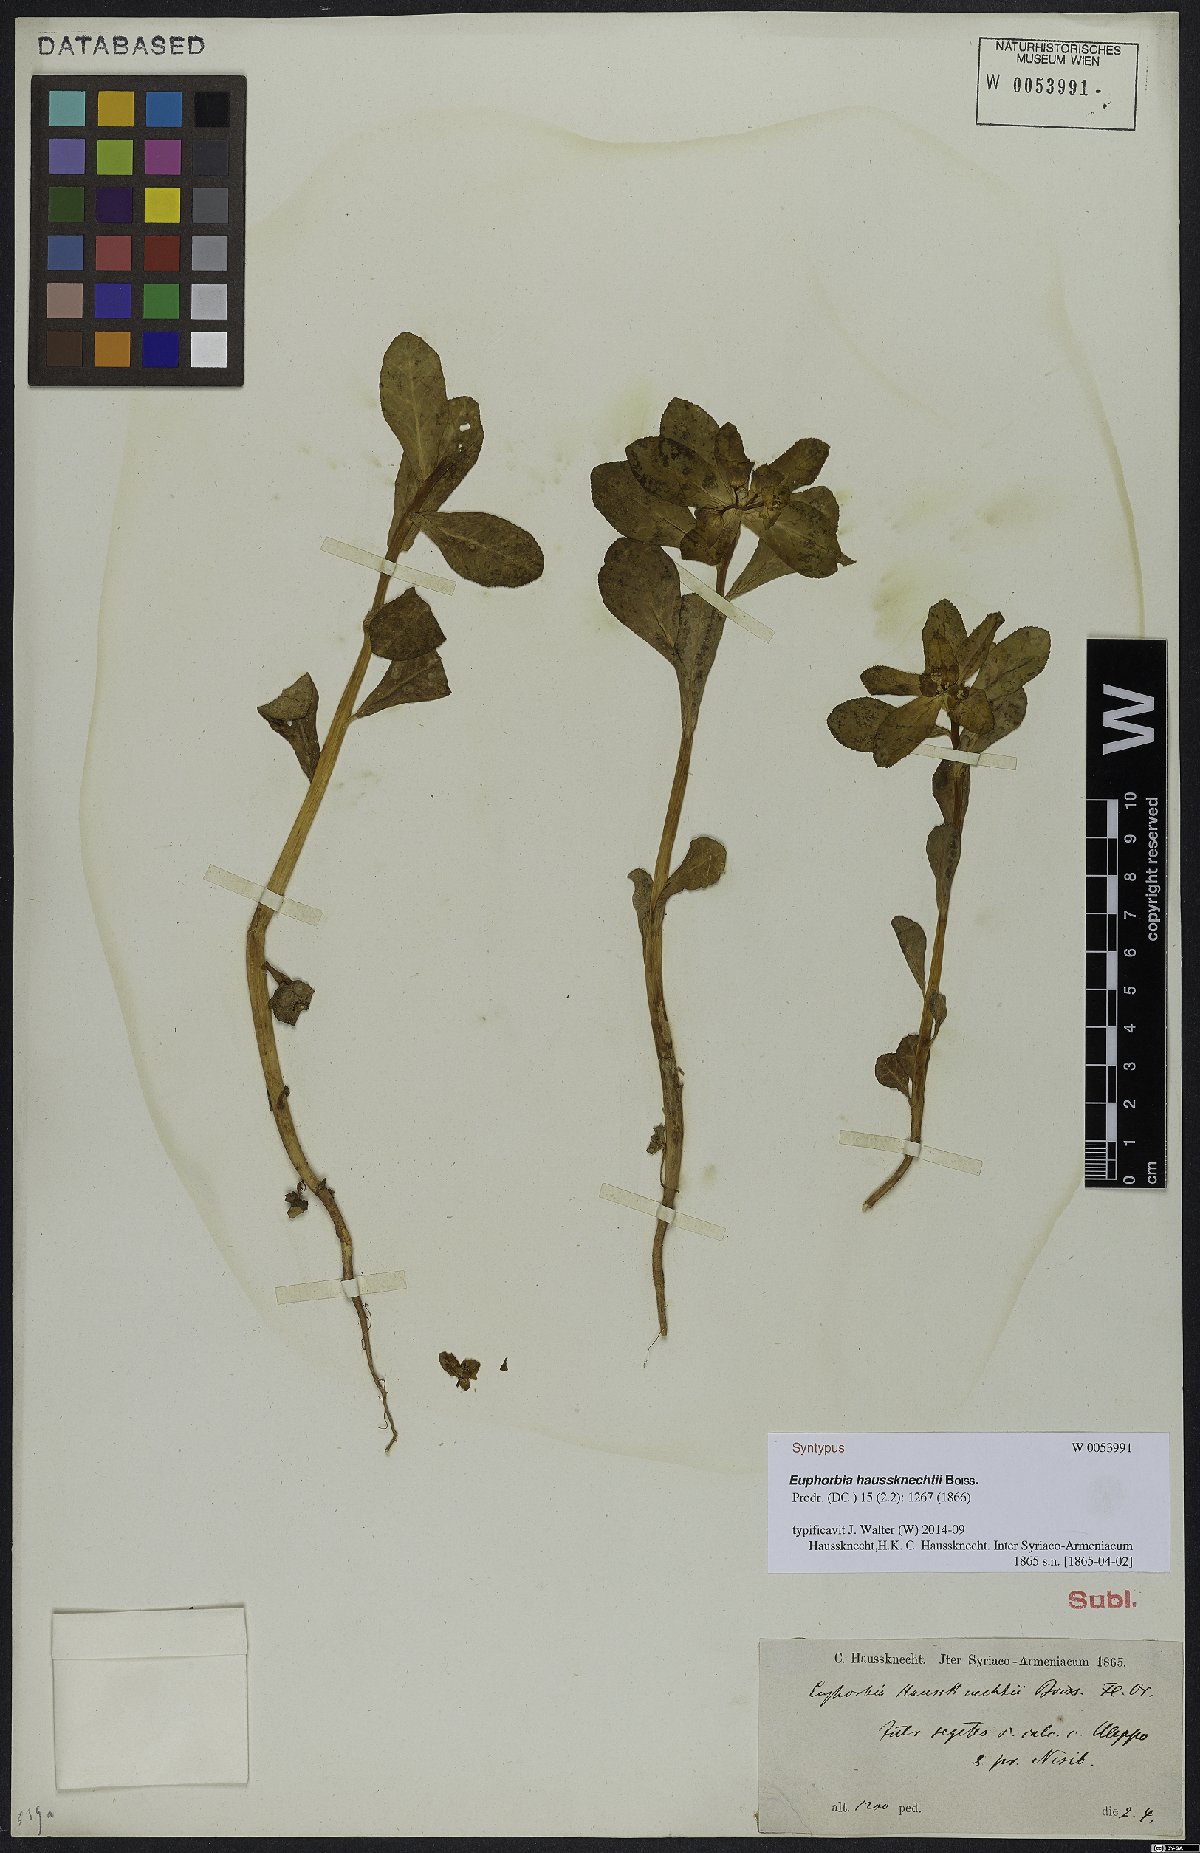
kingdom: Plantae
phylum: Tracheophyta
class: Magnoliopsida
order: Malpighiales
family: Euphorbiaceae
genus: Euphorbia
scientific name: Euphorbia haussknechtii
